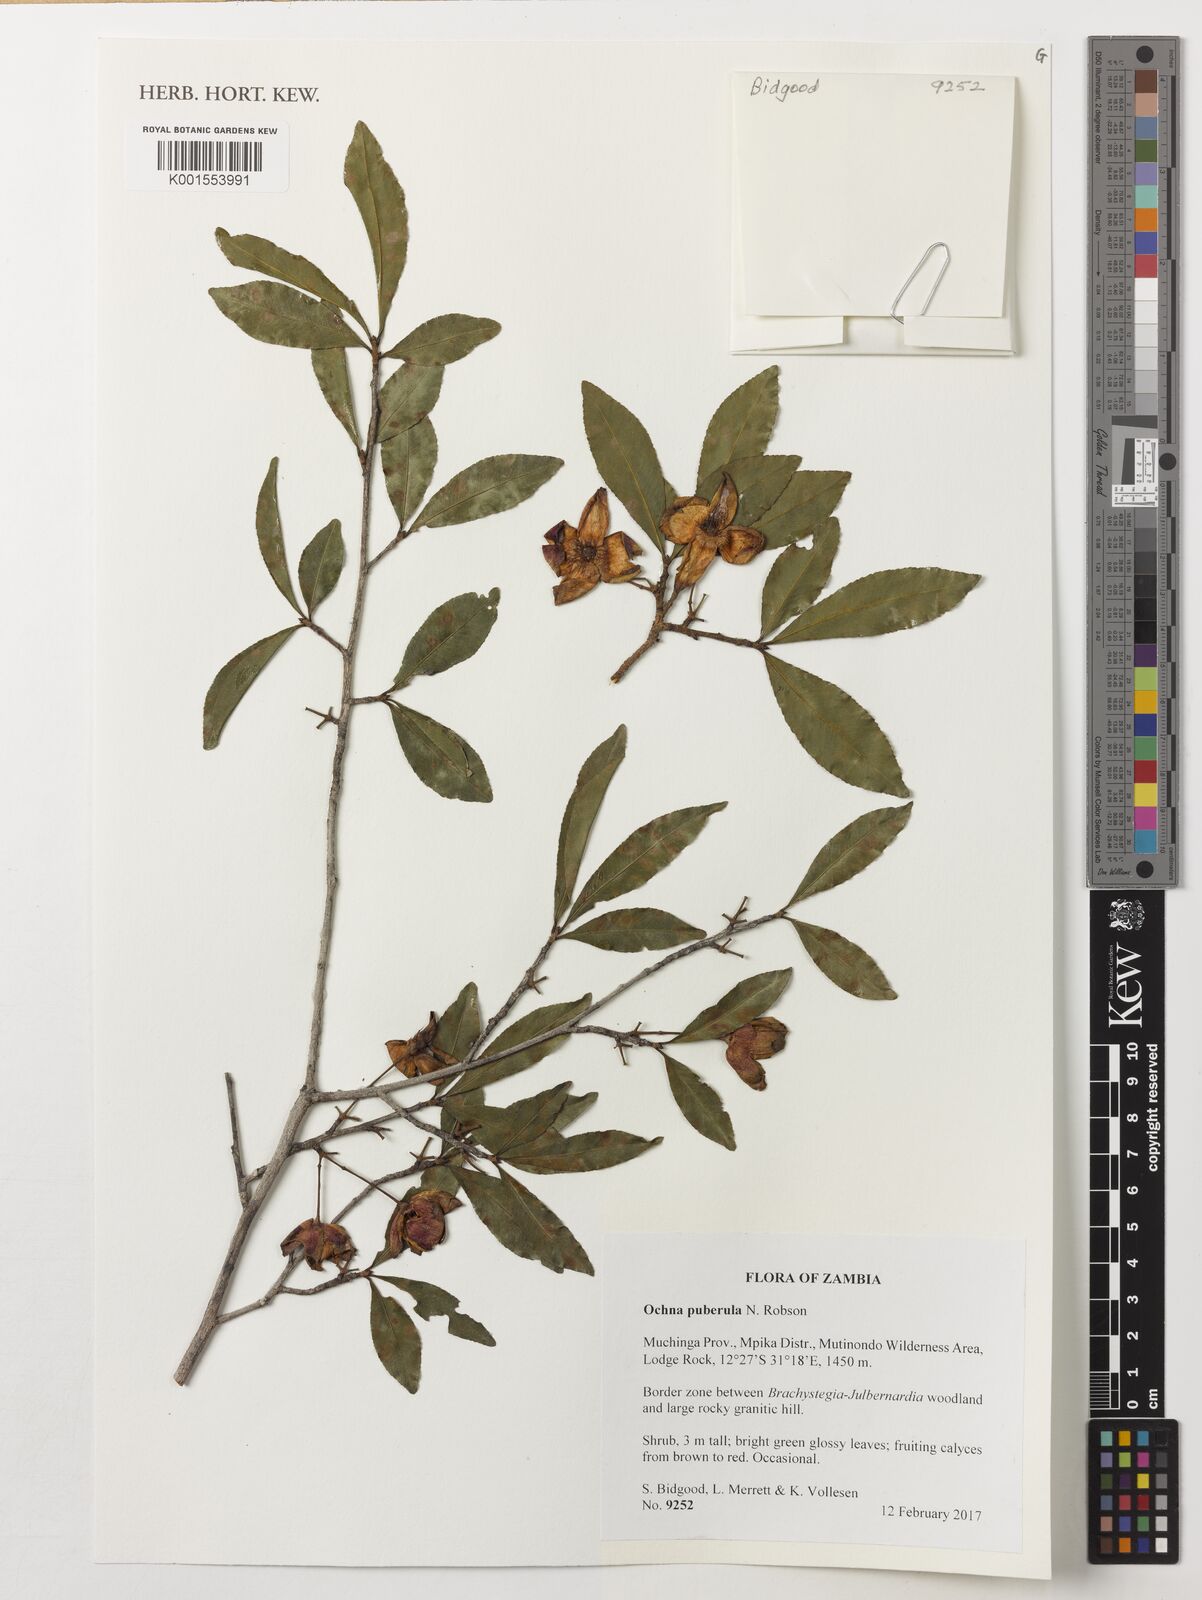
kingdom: Plantae
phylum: Tracheophyta
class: Magnoliopsida
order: Malpighiales
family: Ochnaceae
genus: Ochna
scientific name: Ochna puberula
